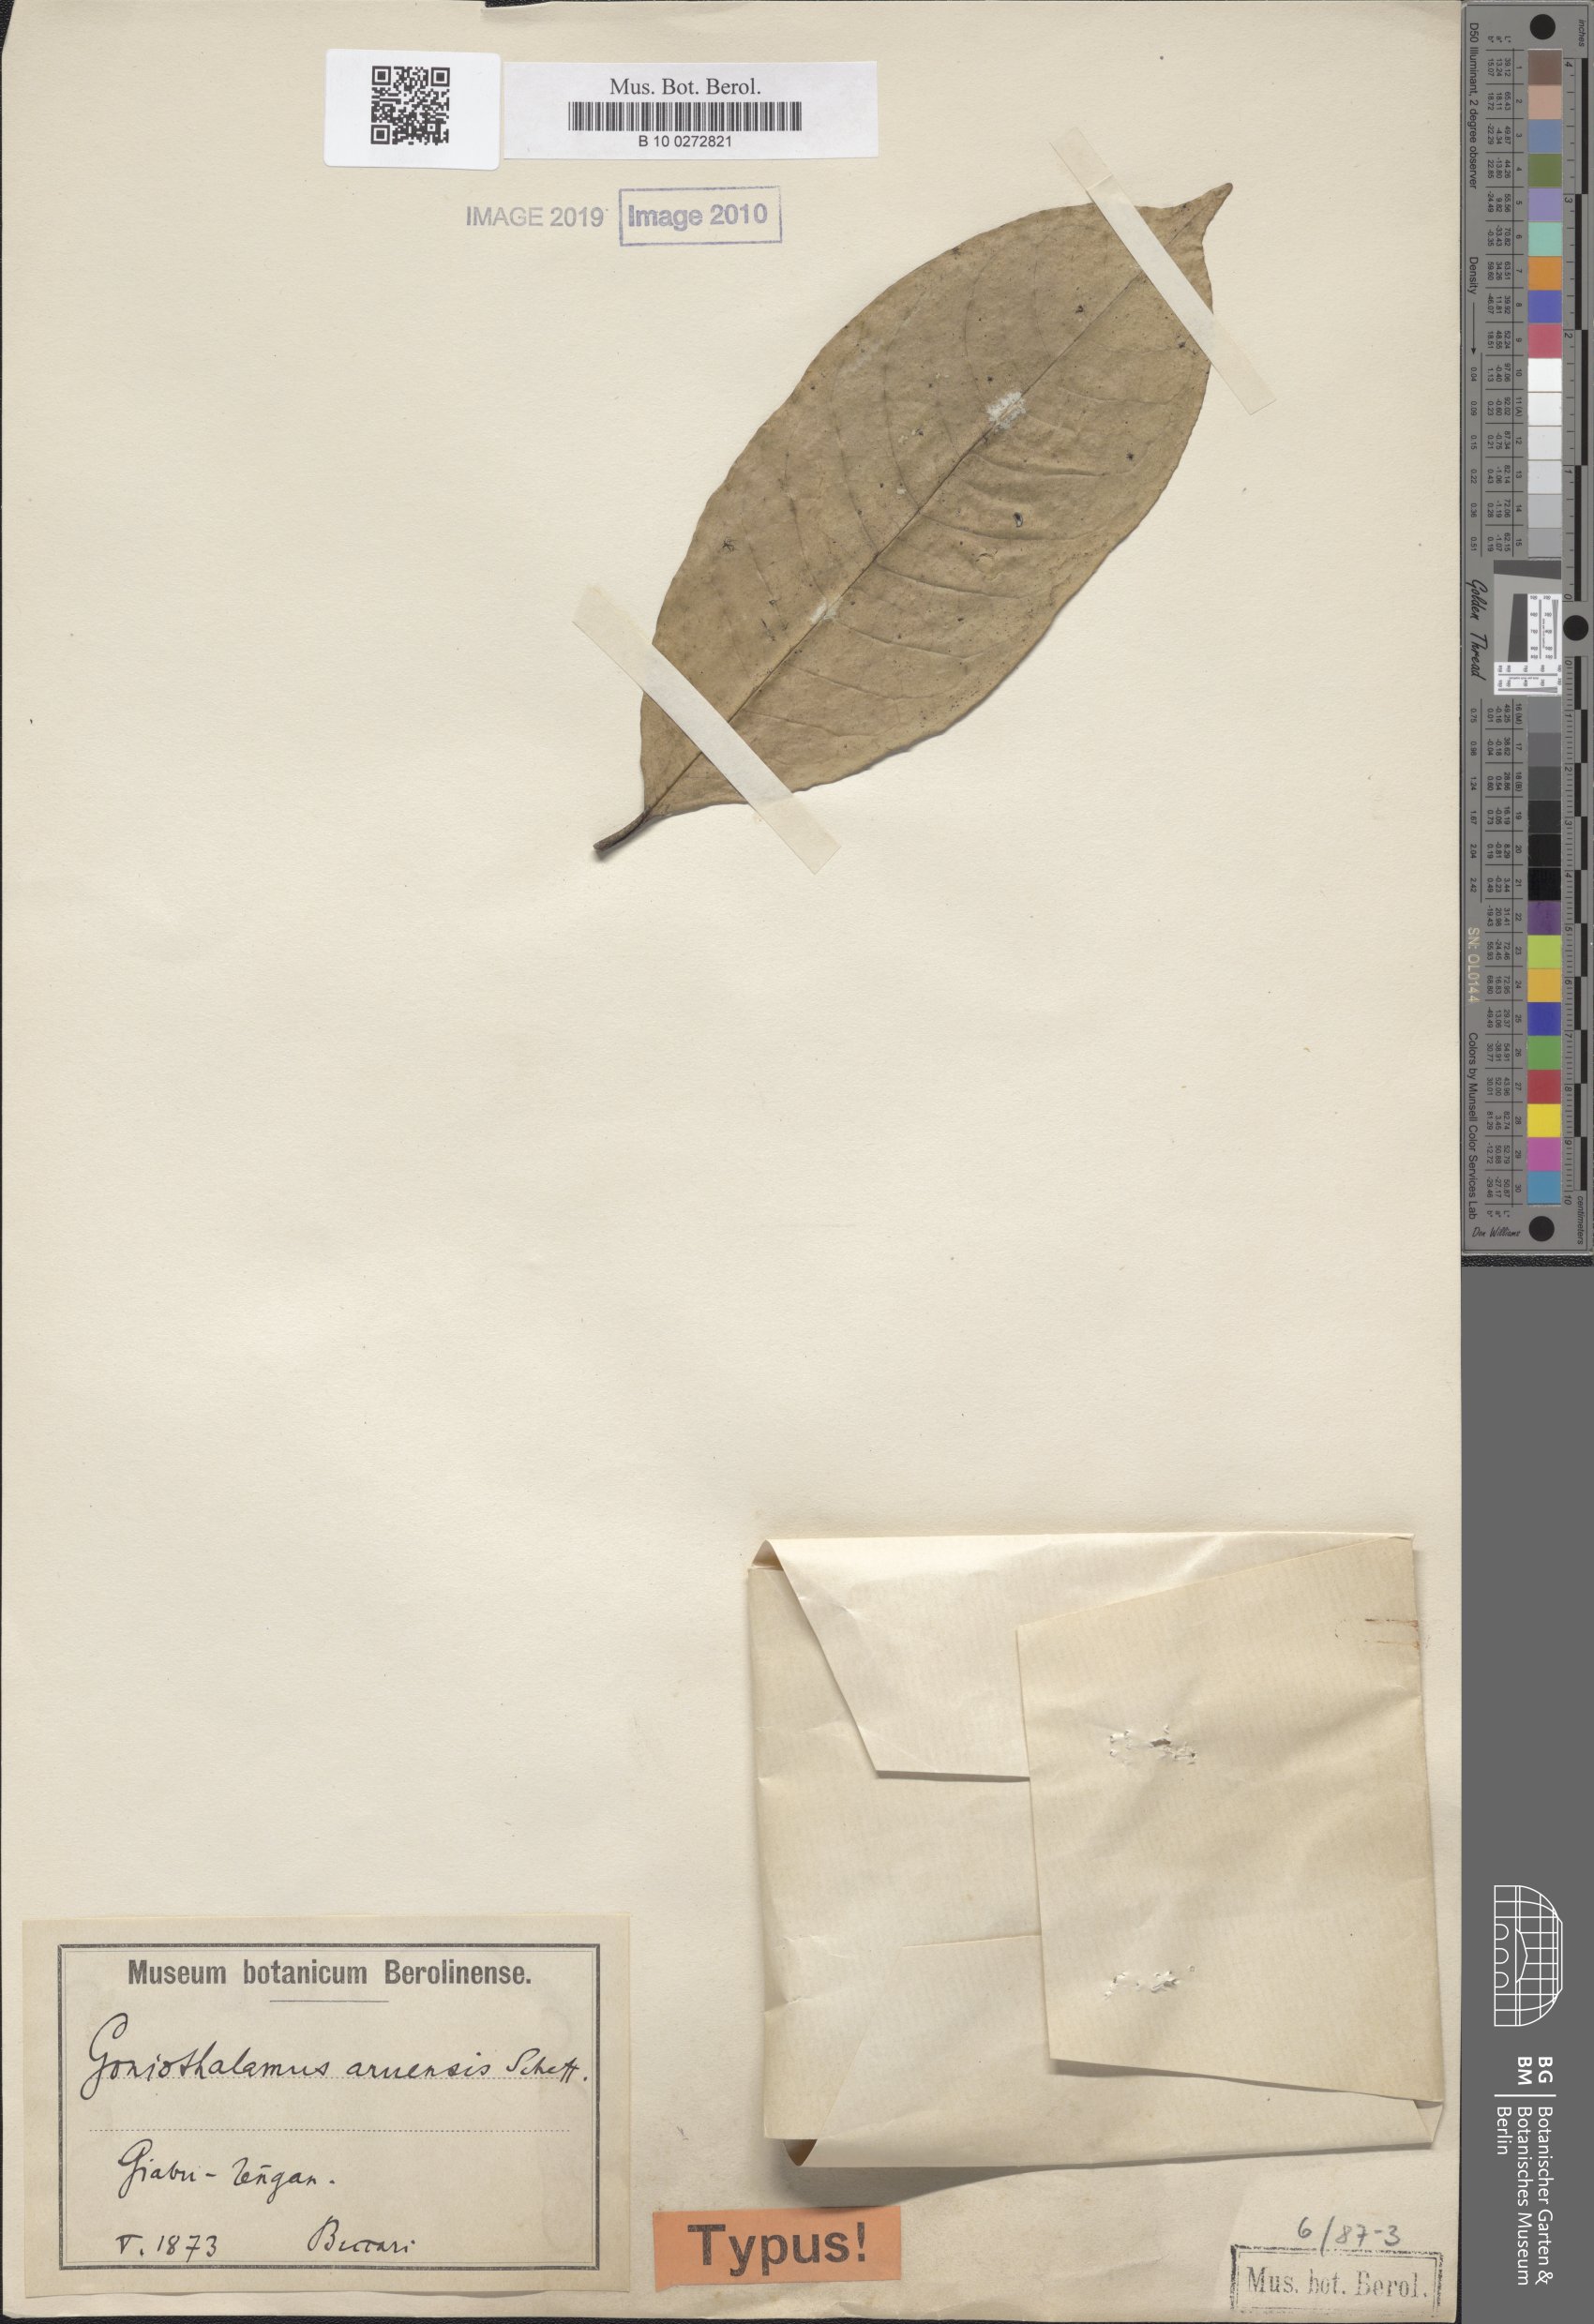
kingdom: Plantae
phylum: Tracheophyta
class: Magnoliopsida
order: Magnoliales
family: Annonaceae
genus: Goniothalamus
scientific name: Goniothalamus aruensis
